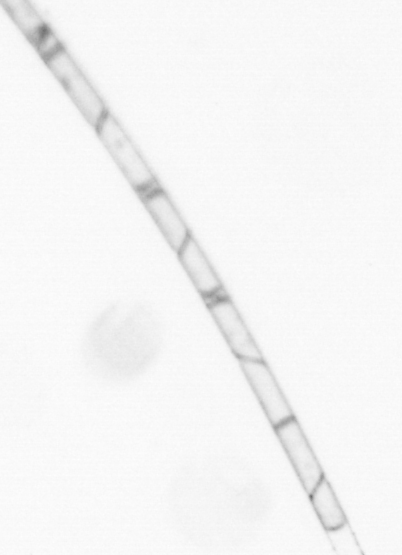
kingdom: Chromista
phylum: Ochrophyta
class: Bacillariophyceae
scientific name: Bacillariophyceae
